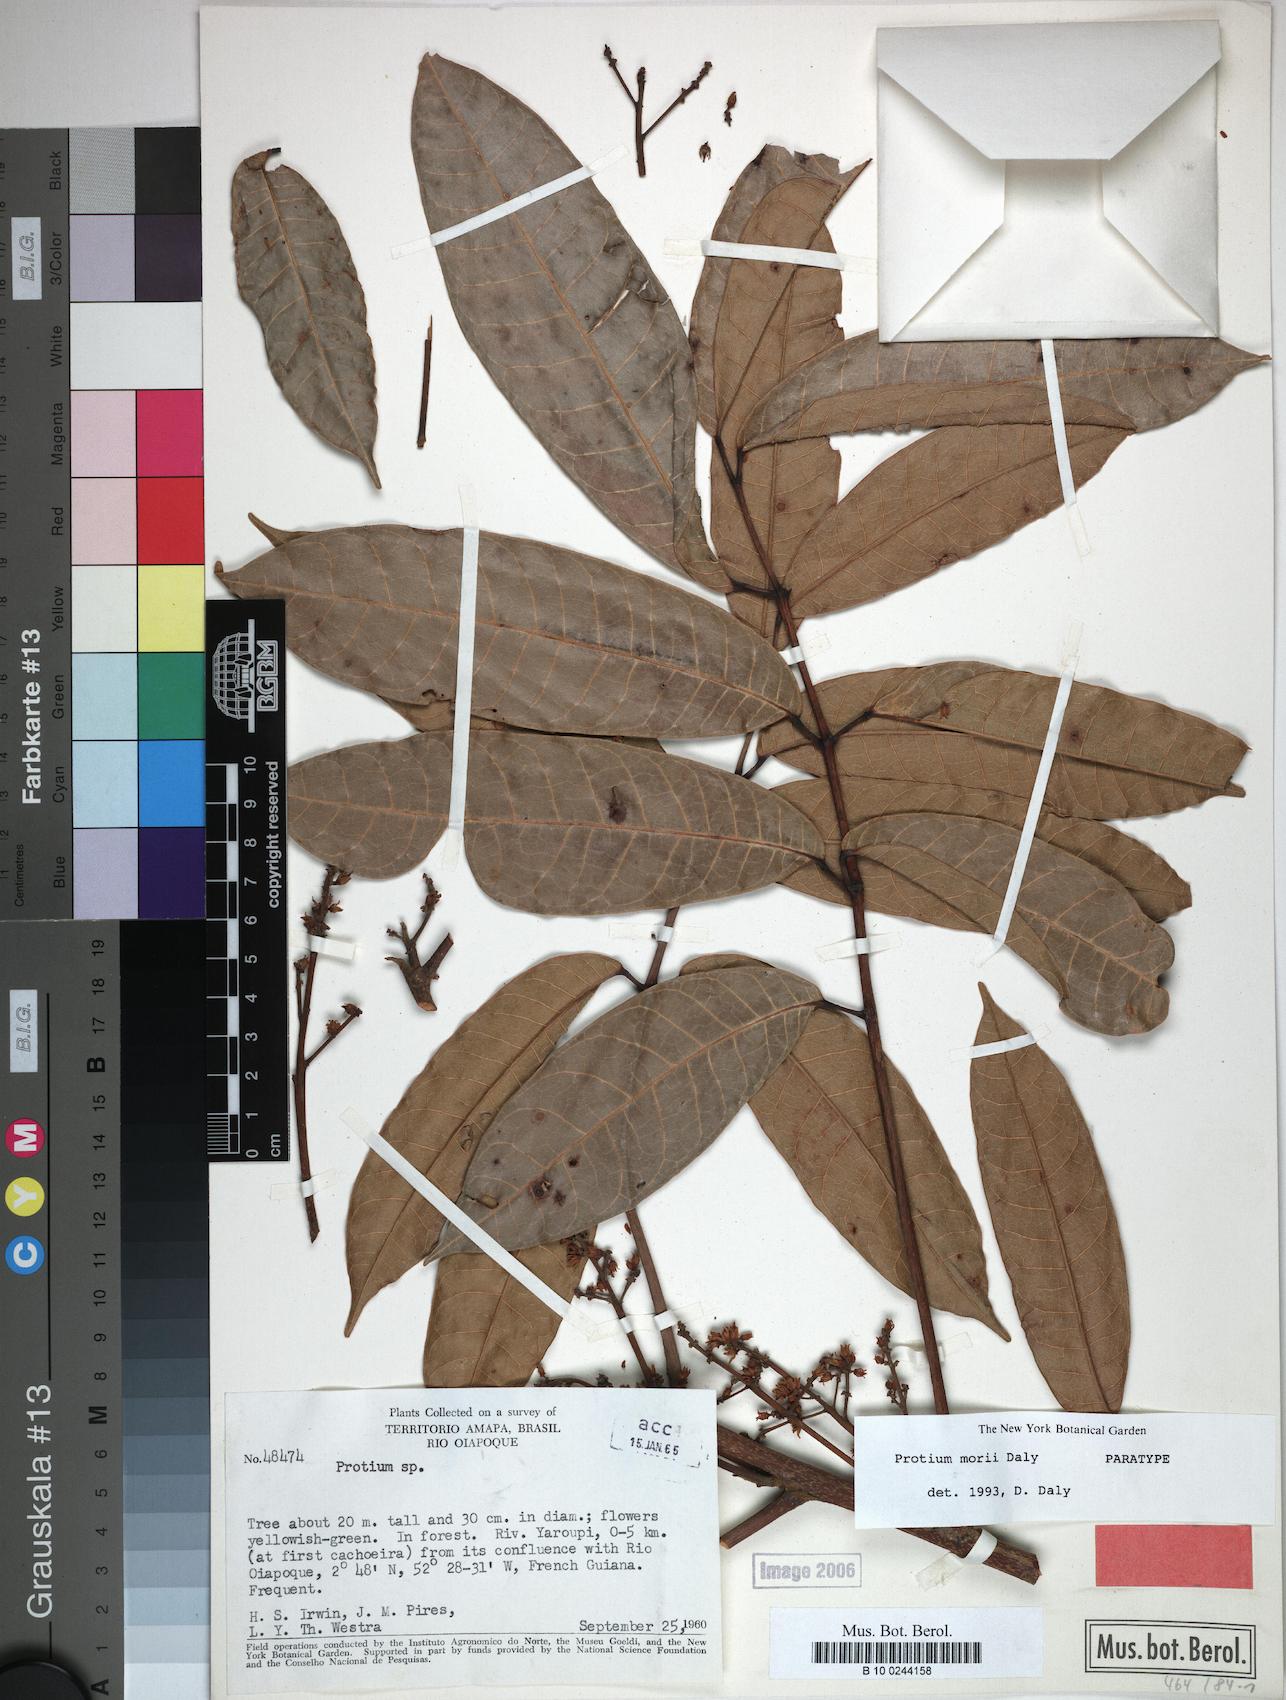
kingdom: Plantae
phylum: Tracheophyta
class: Magnoliopsida
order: Sapindales
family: Burseraceae
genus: Protium
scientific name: Protium morii
